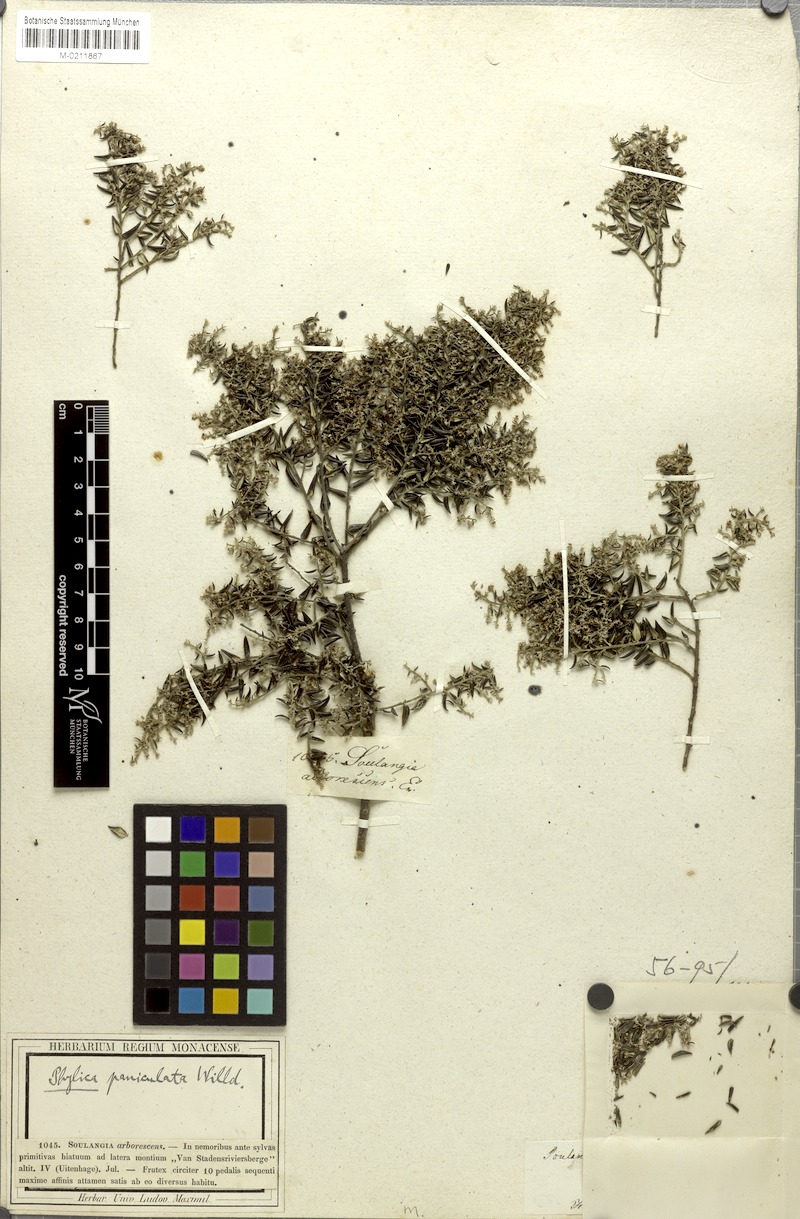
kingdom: Plantae
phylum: Tracheophyta
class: Magnoliopsida
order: Rosales
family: Rhamnaceae
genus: Phylica
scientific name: Phylica paniculata
